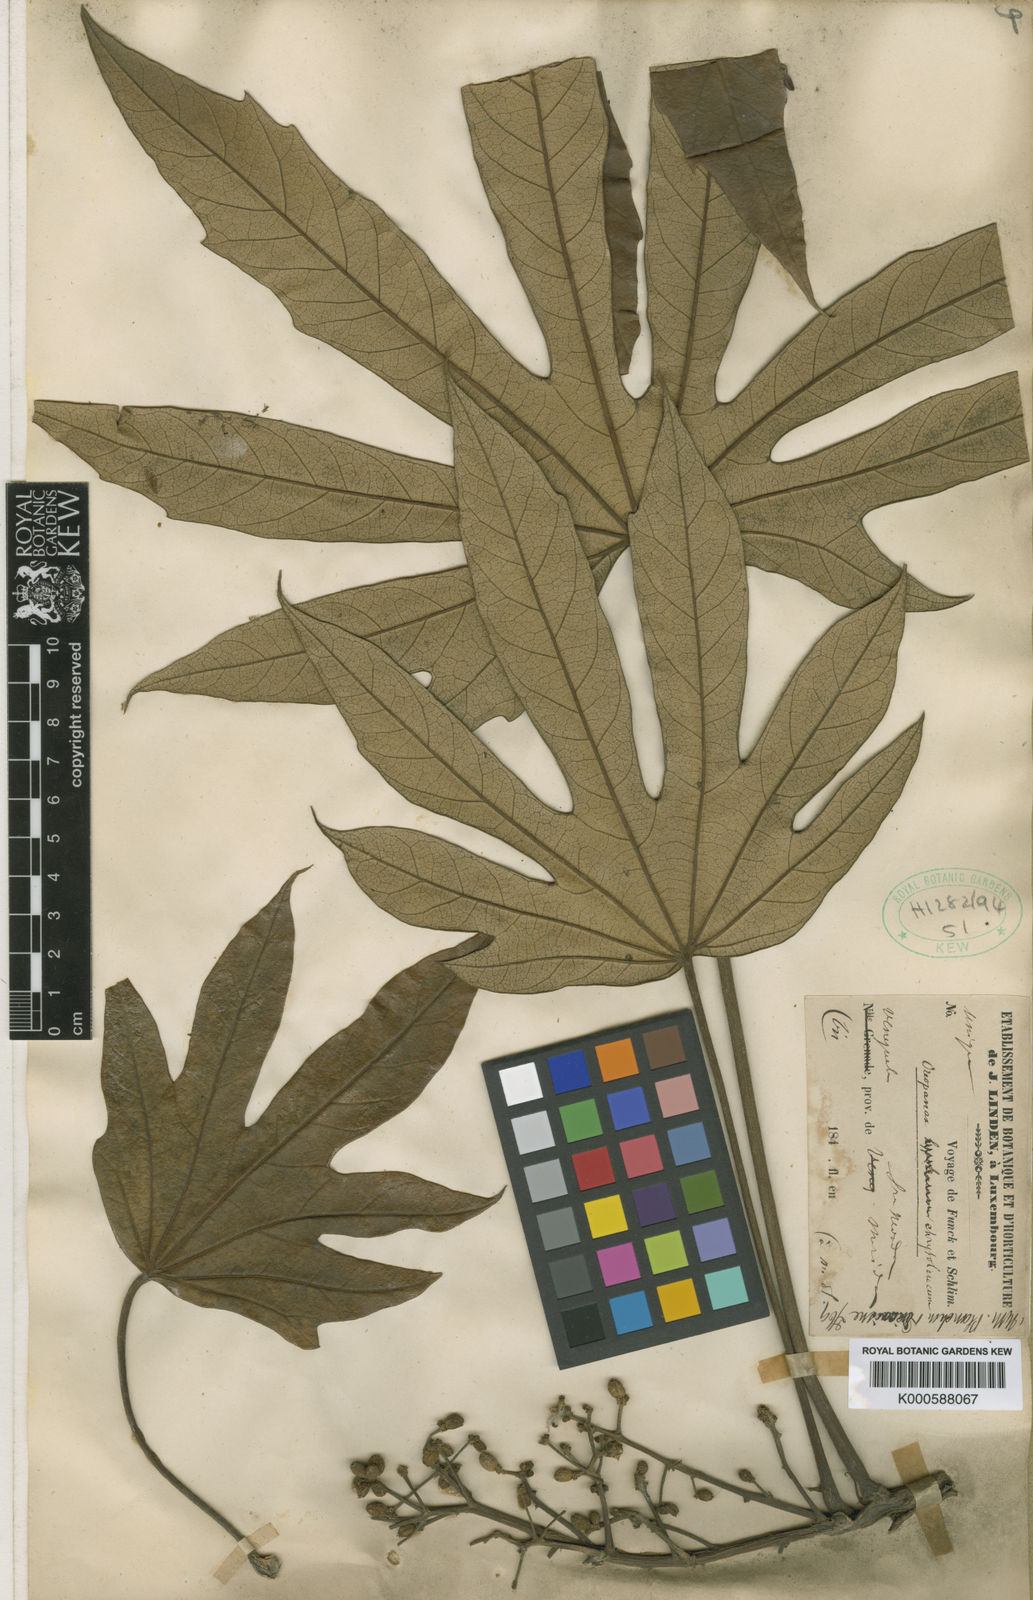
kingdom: Plantae
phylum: Tracheophyta
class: Magnoliopsida
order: Apiales
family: Araliaceae
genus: Oreopanax
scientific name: Oreopanax discolor
